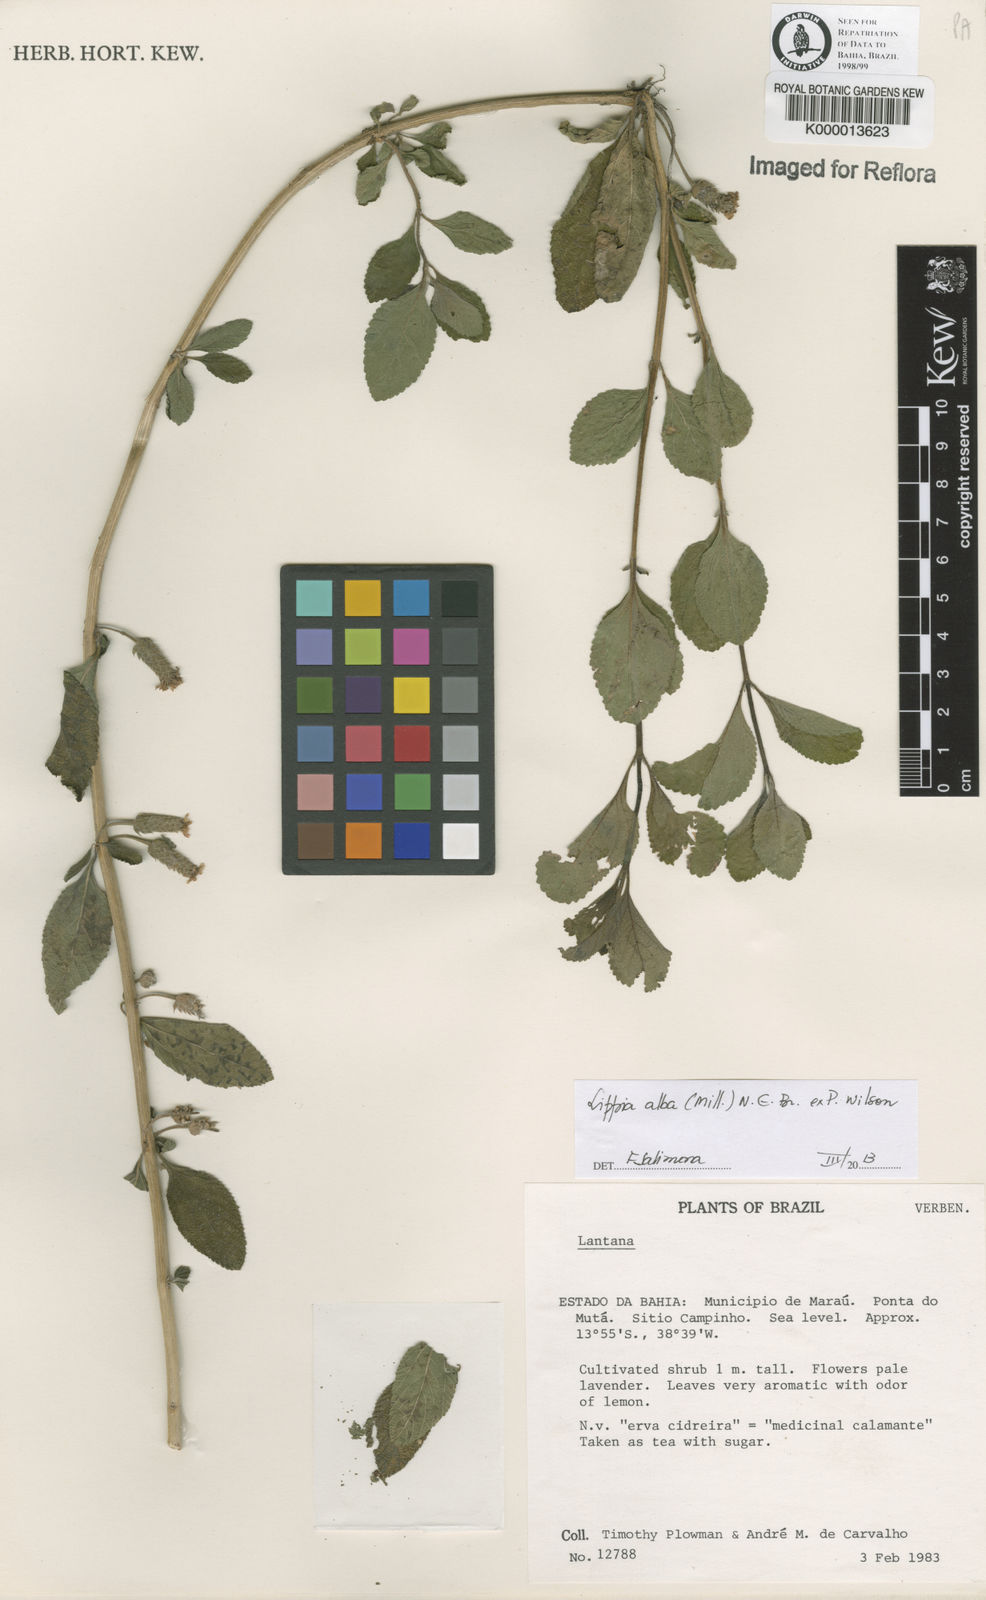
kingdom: Plantae
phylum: Tracheophyta
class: Magnoliopsida
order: Lamiales
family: Verbenaceae
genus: Lippia
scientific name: Lippia
